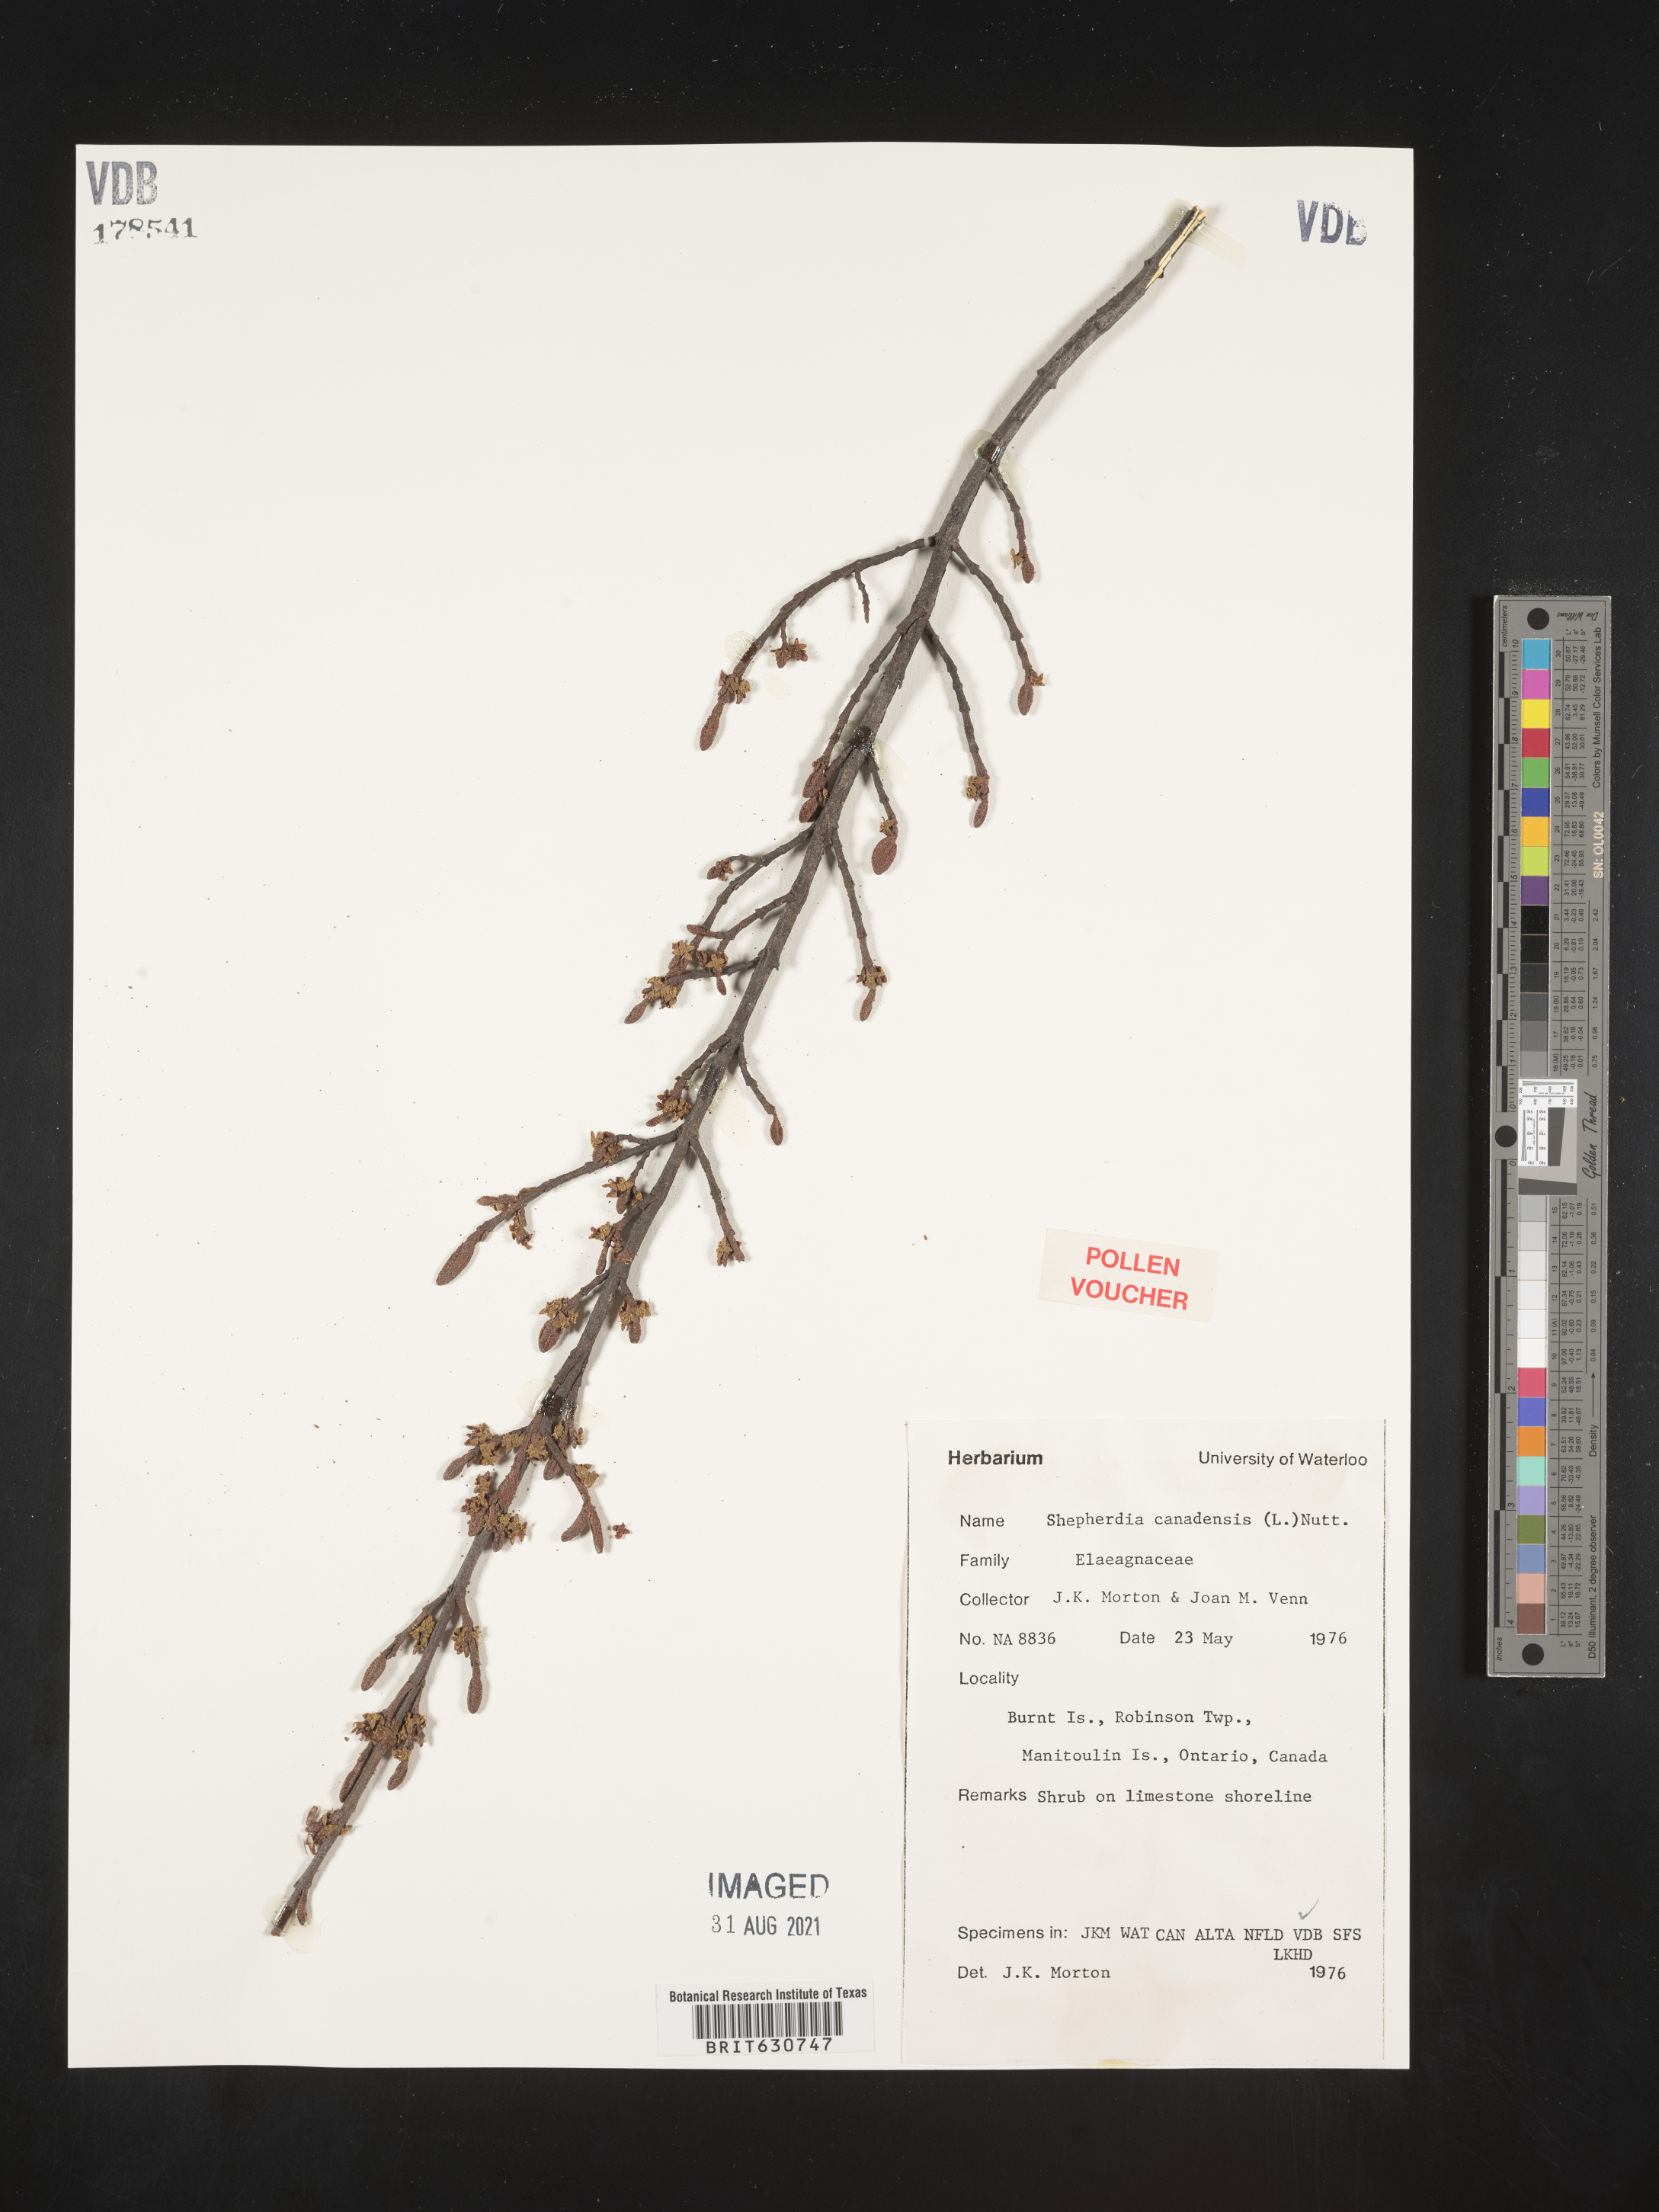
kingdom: Plantae
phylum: Tracheophyta
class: Magnoliopsida
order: Rosales
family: Elaeagnaceae
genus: Shepherdia
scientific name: Shepherdia
